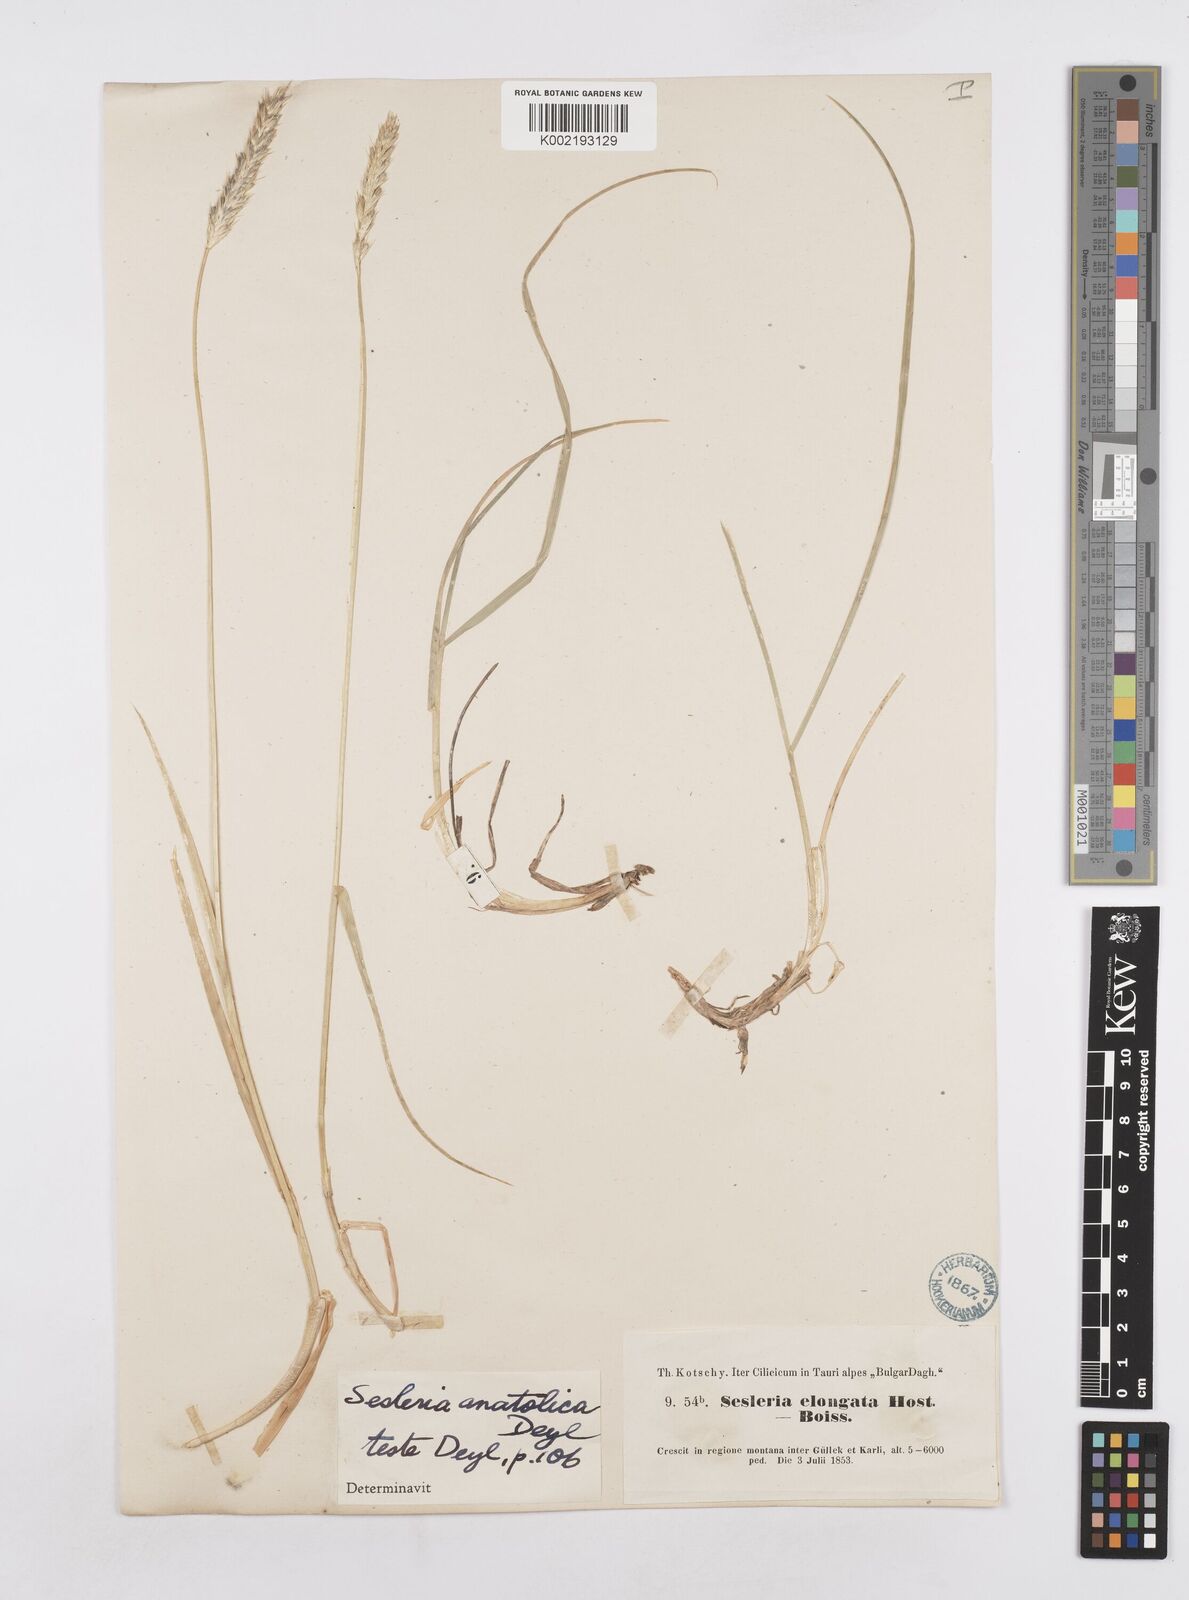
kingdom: Plantae
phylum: Tracheophyta
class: Liliopsida
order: Poales
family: Poaceae
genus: Sesleria
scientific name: Sesleria alba
